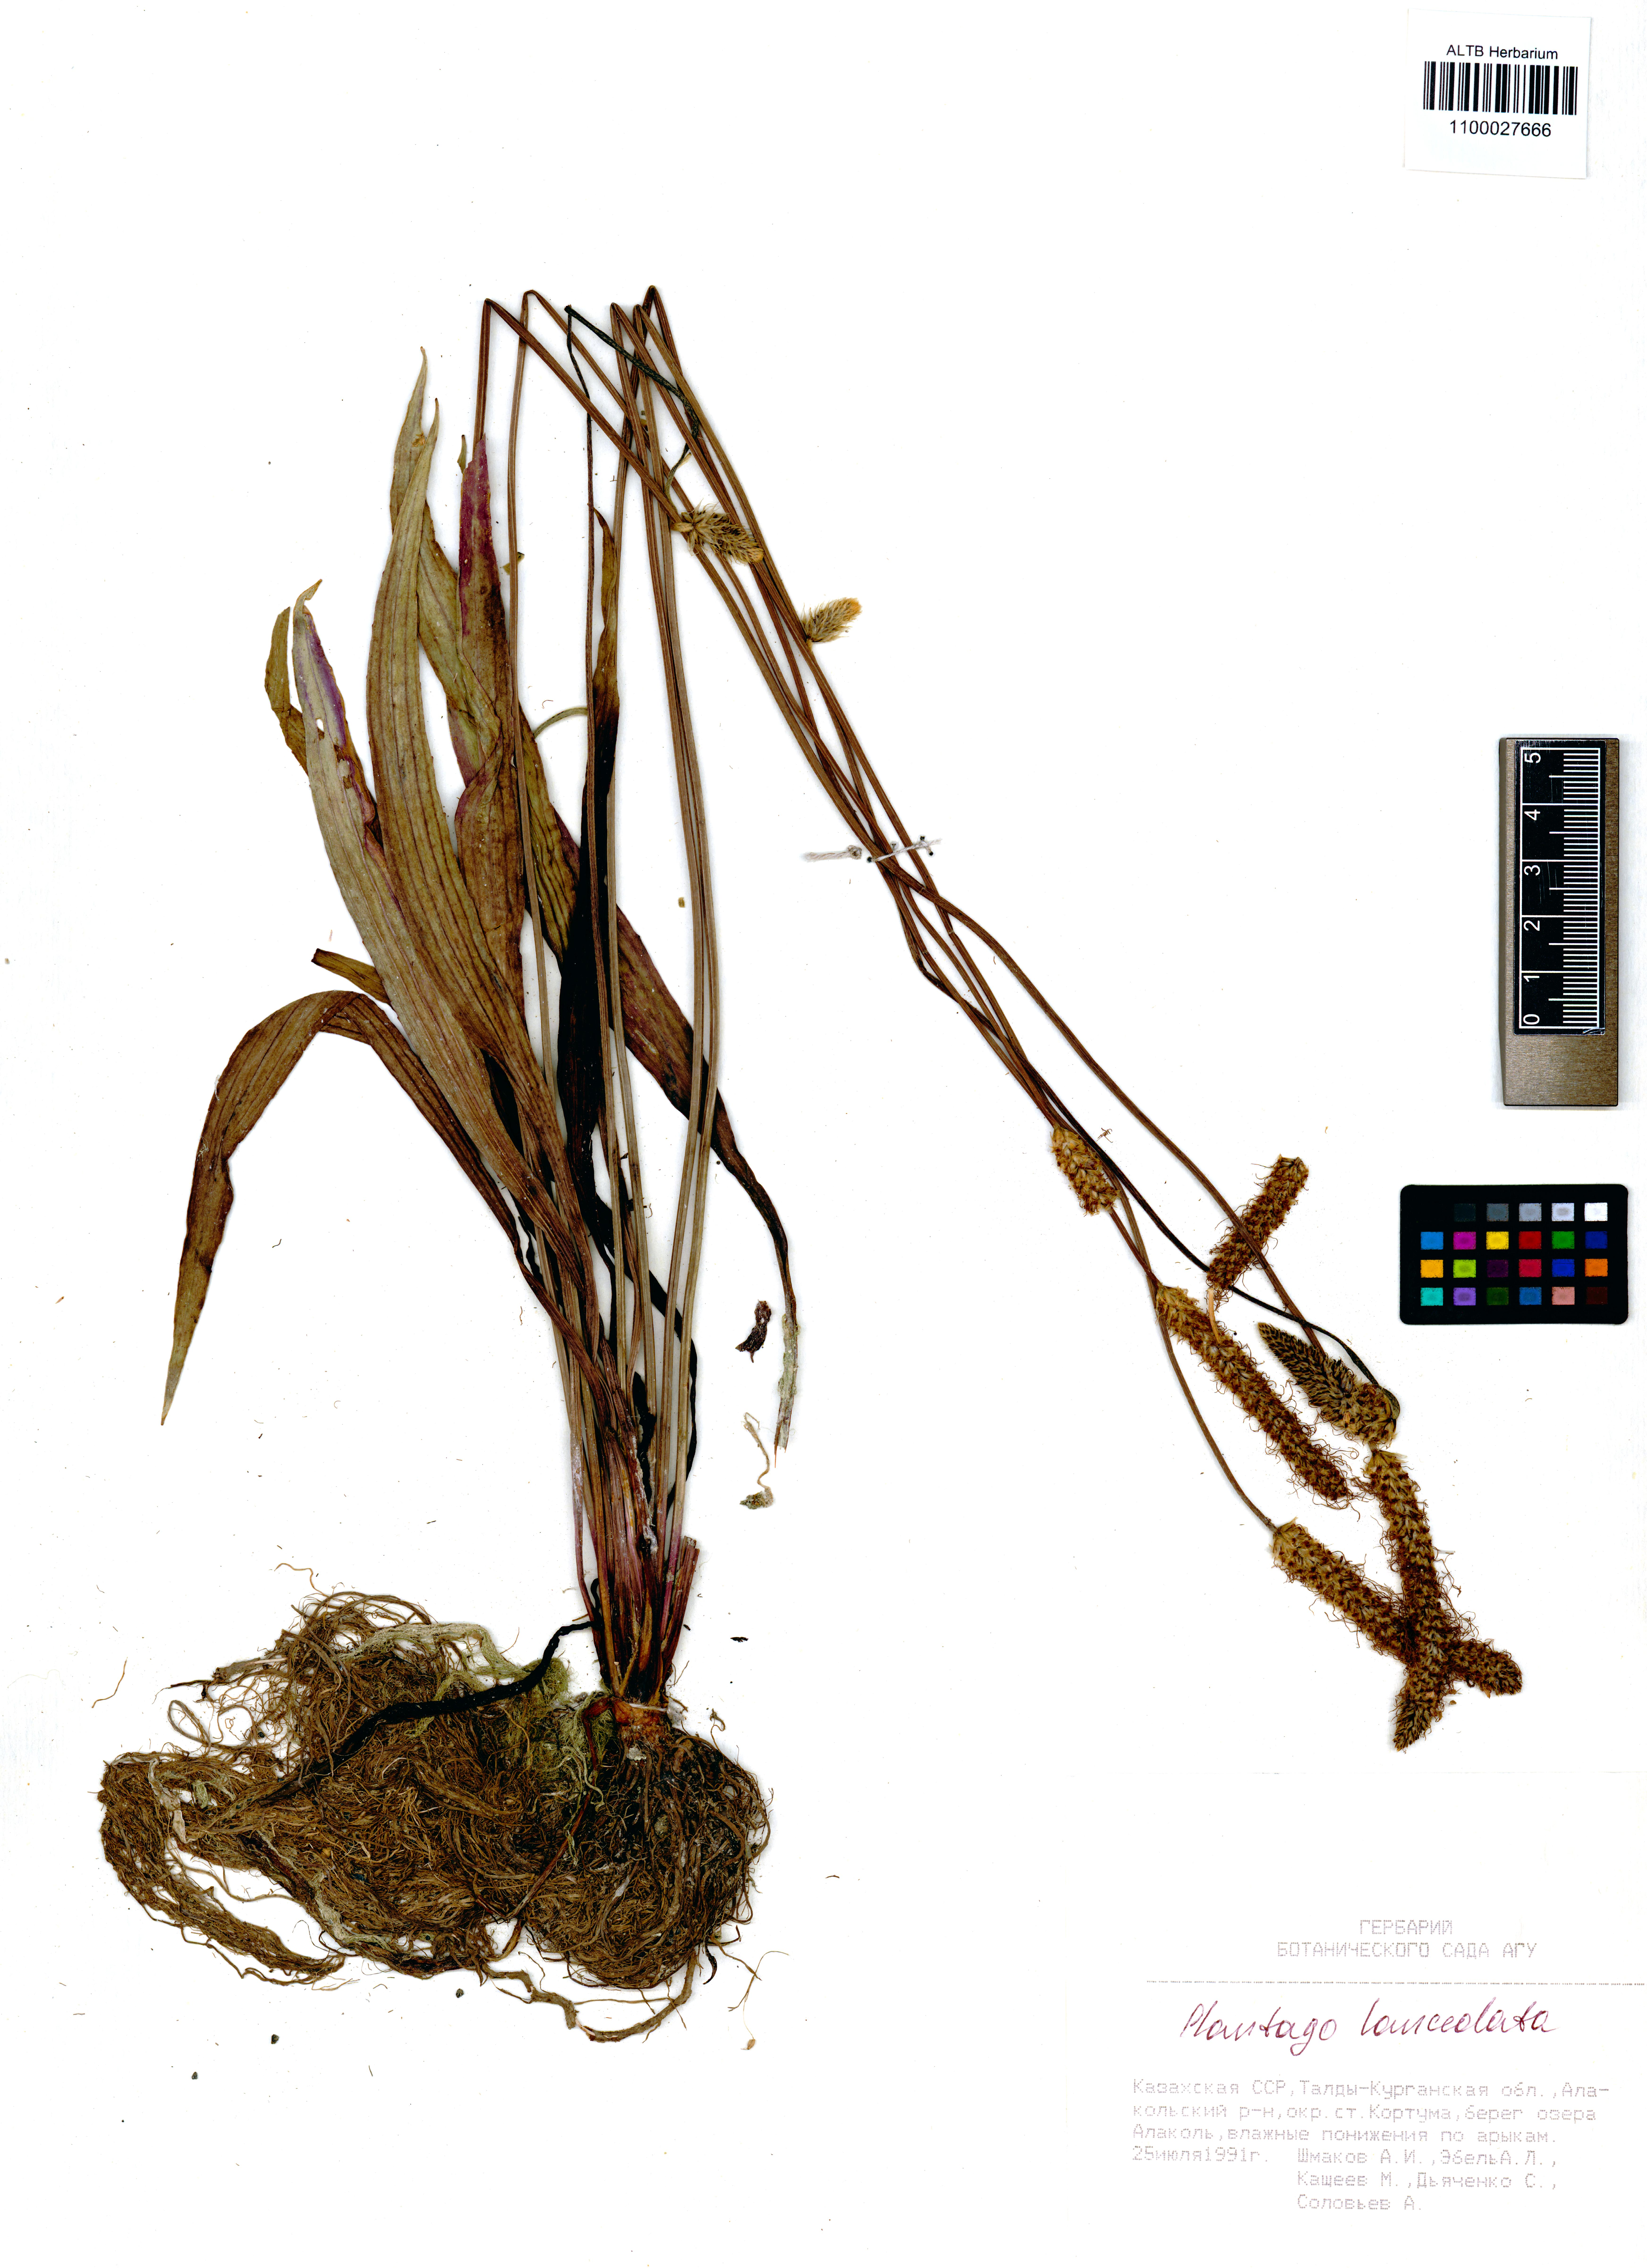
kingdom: Plantae
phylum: Tracheophyta
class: Magnoliopsida
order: Lamiales
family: Plantaginaceae
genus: Plantago
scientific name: Plantago lanceolata
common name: Ribwort plantain
